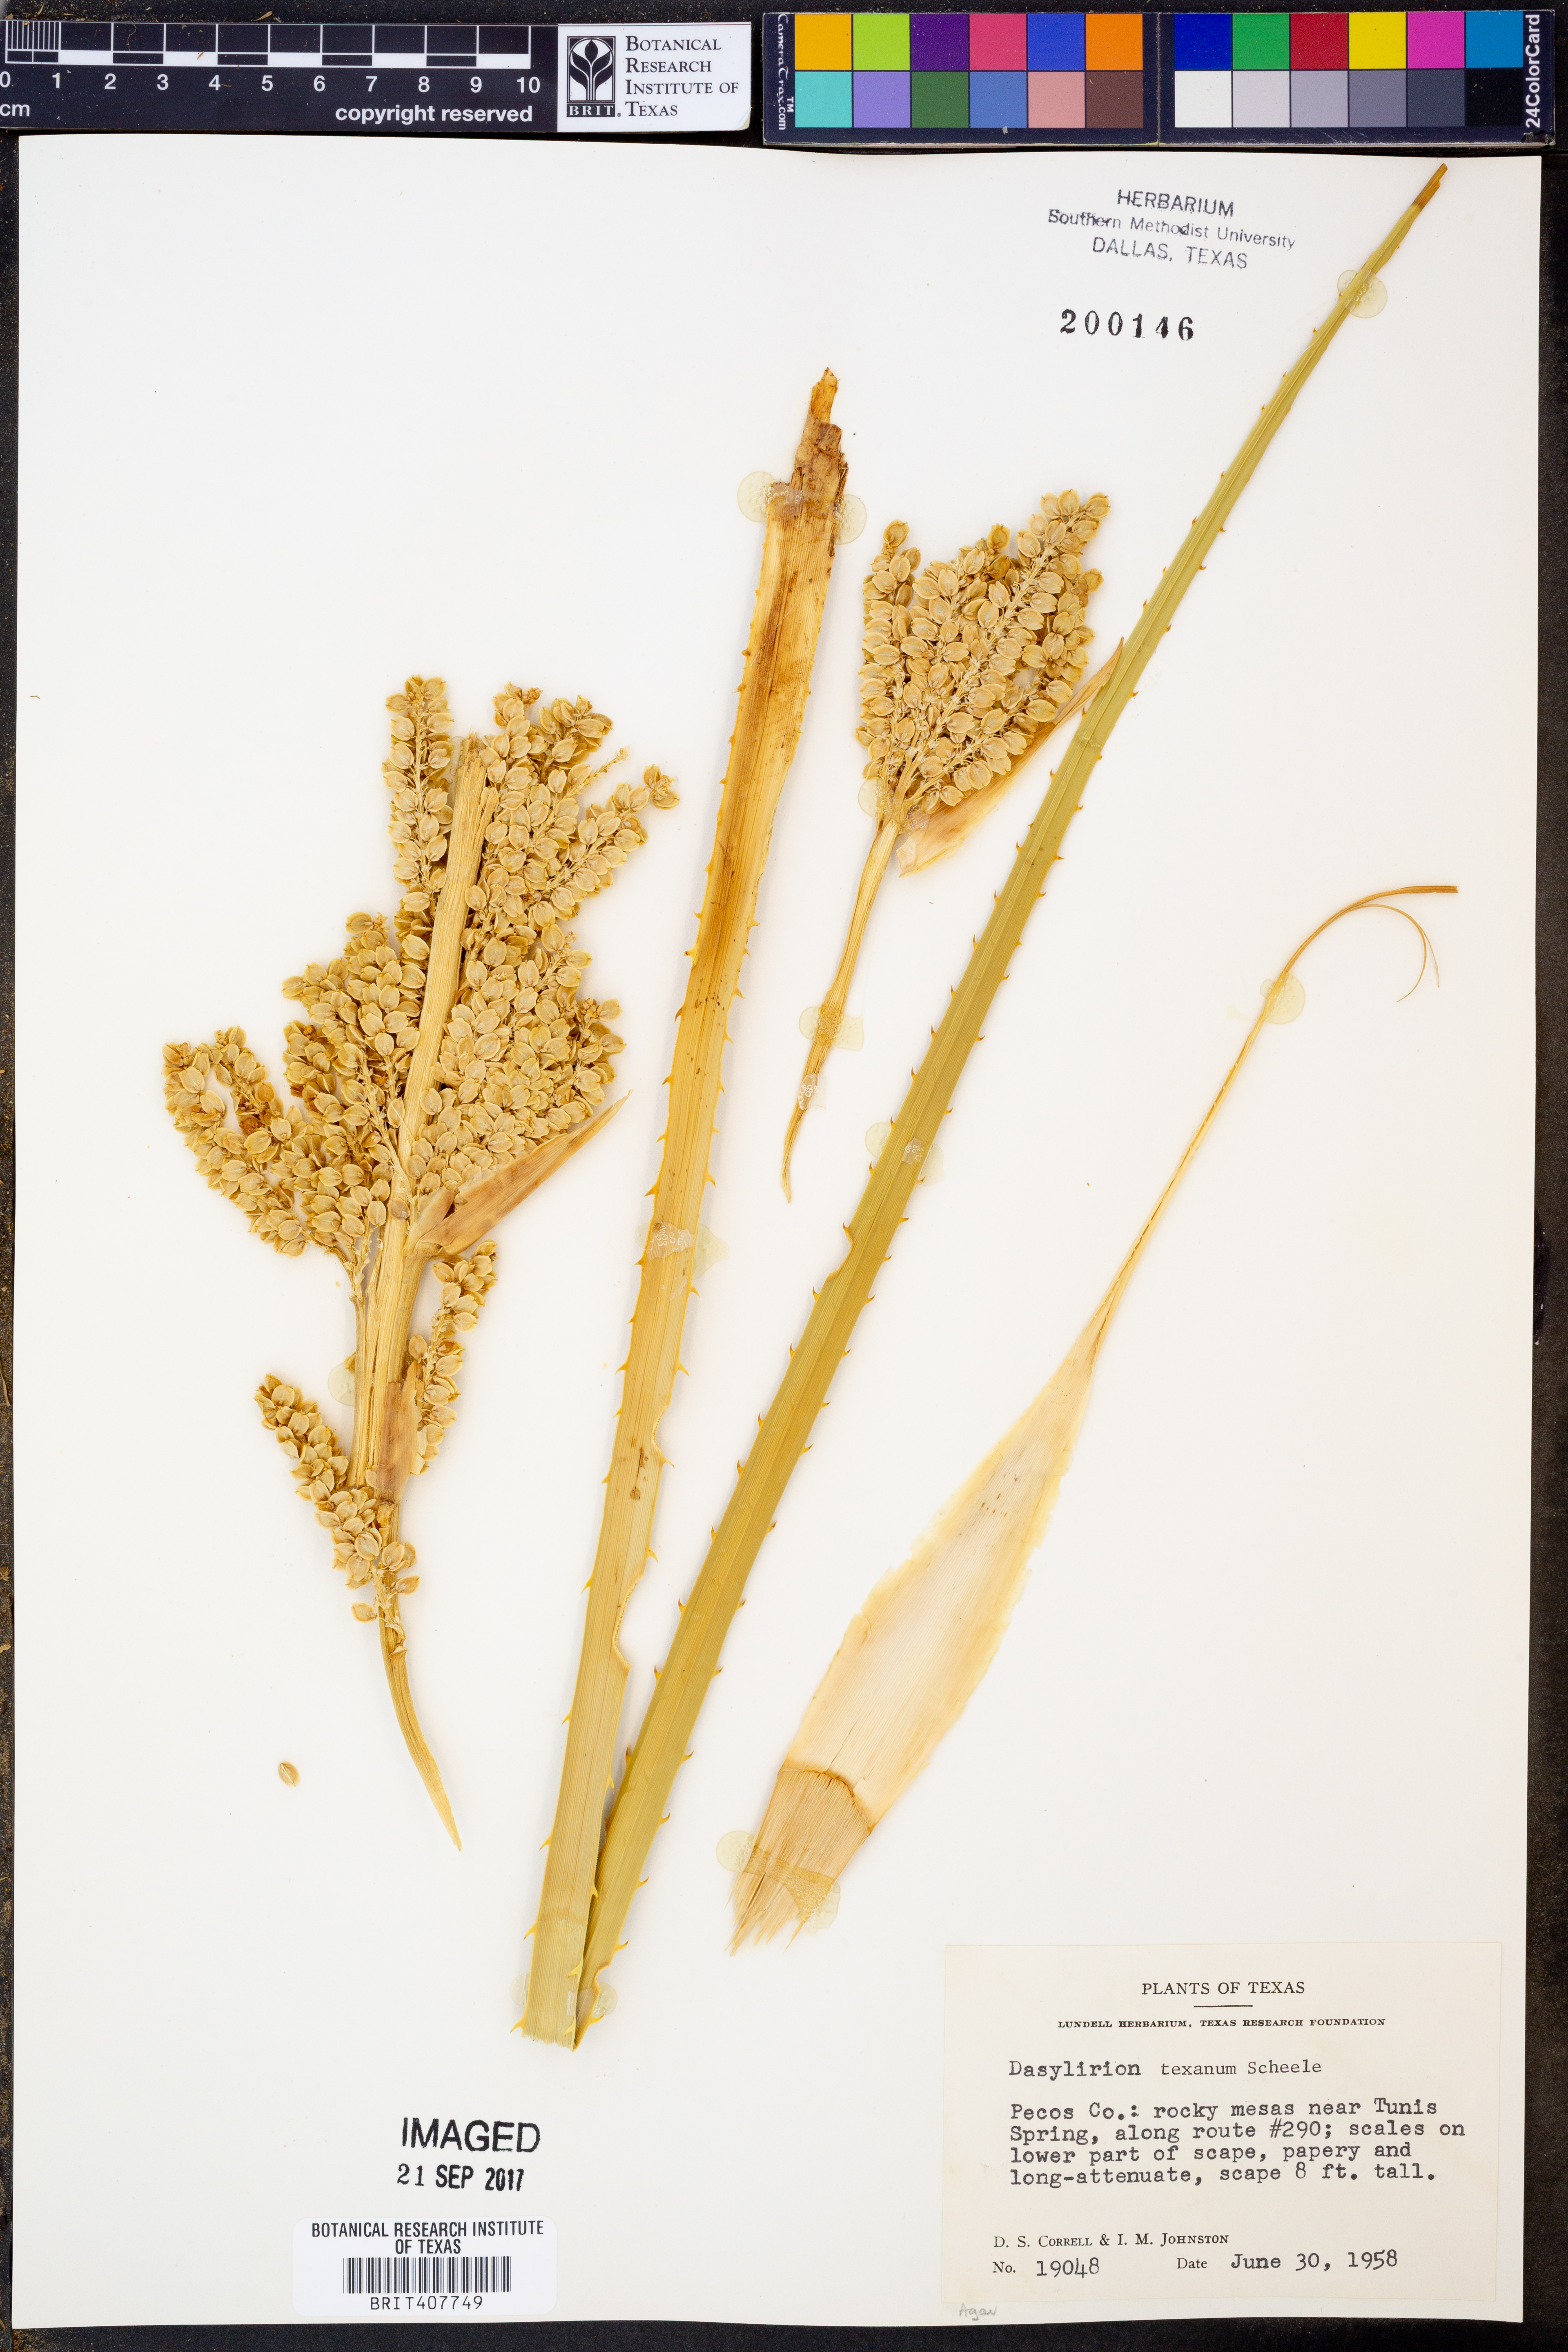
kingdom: Plantae
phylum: Tracheophyta
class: Liliopsida
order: Asparagales
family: Asparagaceae
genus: Dasylirion
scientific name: Dasylirion texanum
